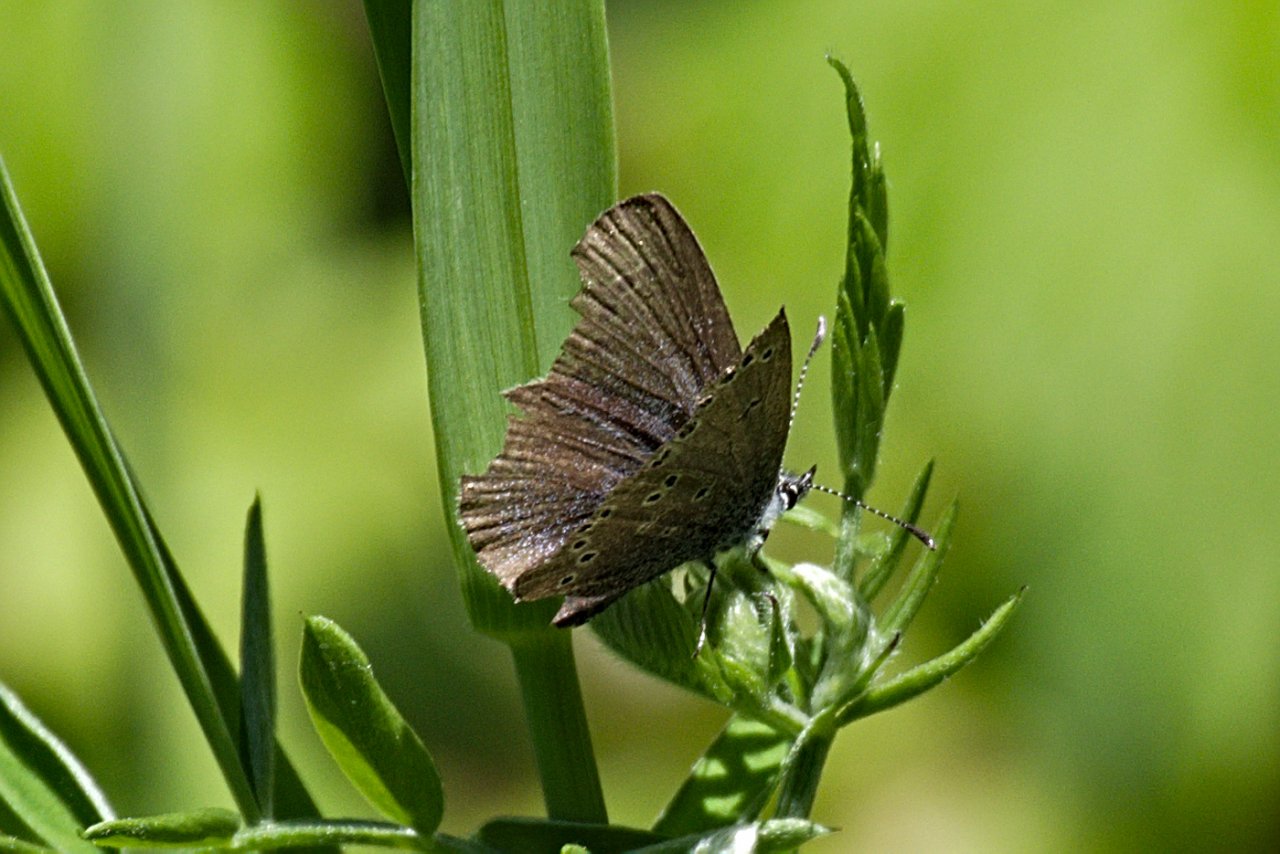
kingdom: Animalia
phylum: Arthropoda
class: Insecta
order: Lepidoptera
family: Lycaenidae
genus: Glaucopsyche
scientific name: Glaucopsyche lygdamus
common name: Silvery Blue
